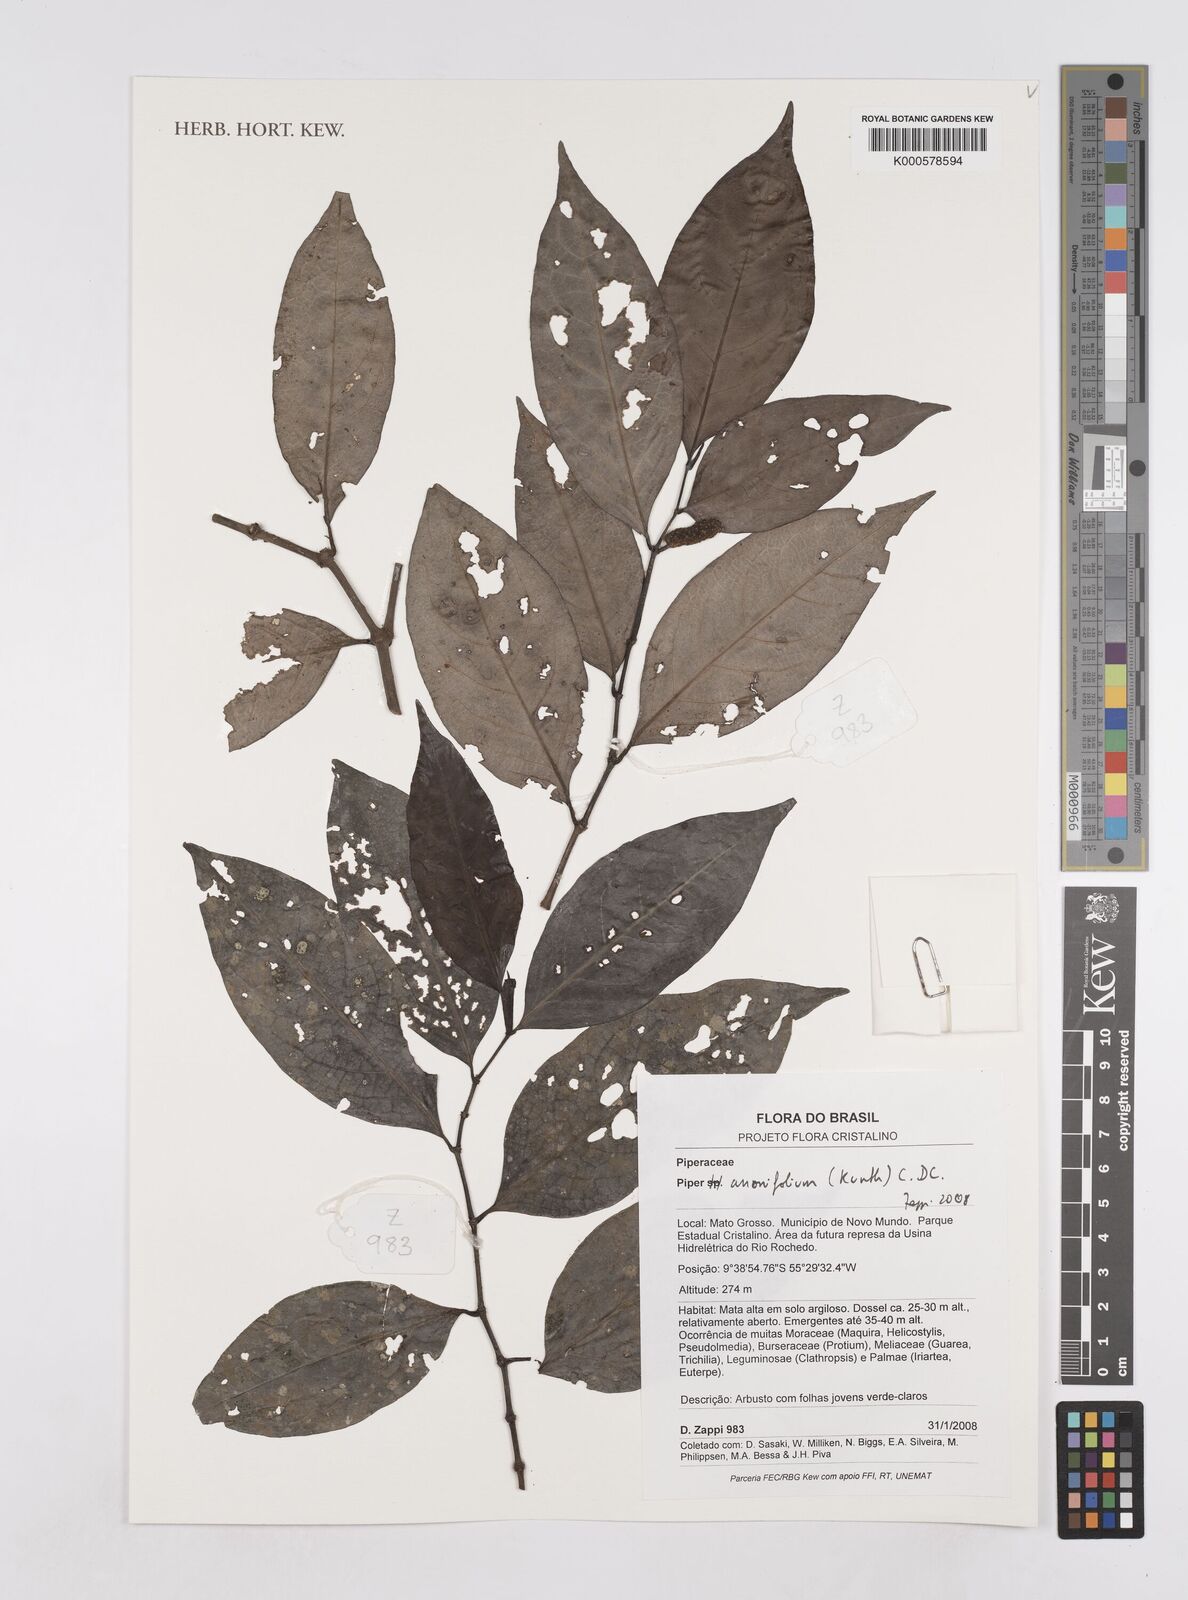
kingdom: Plantae
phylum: Tracheophyta
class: Magnoliopsida
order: Piperales
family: Piperaceae
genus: Piper
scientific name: Piper
